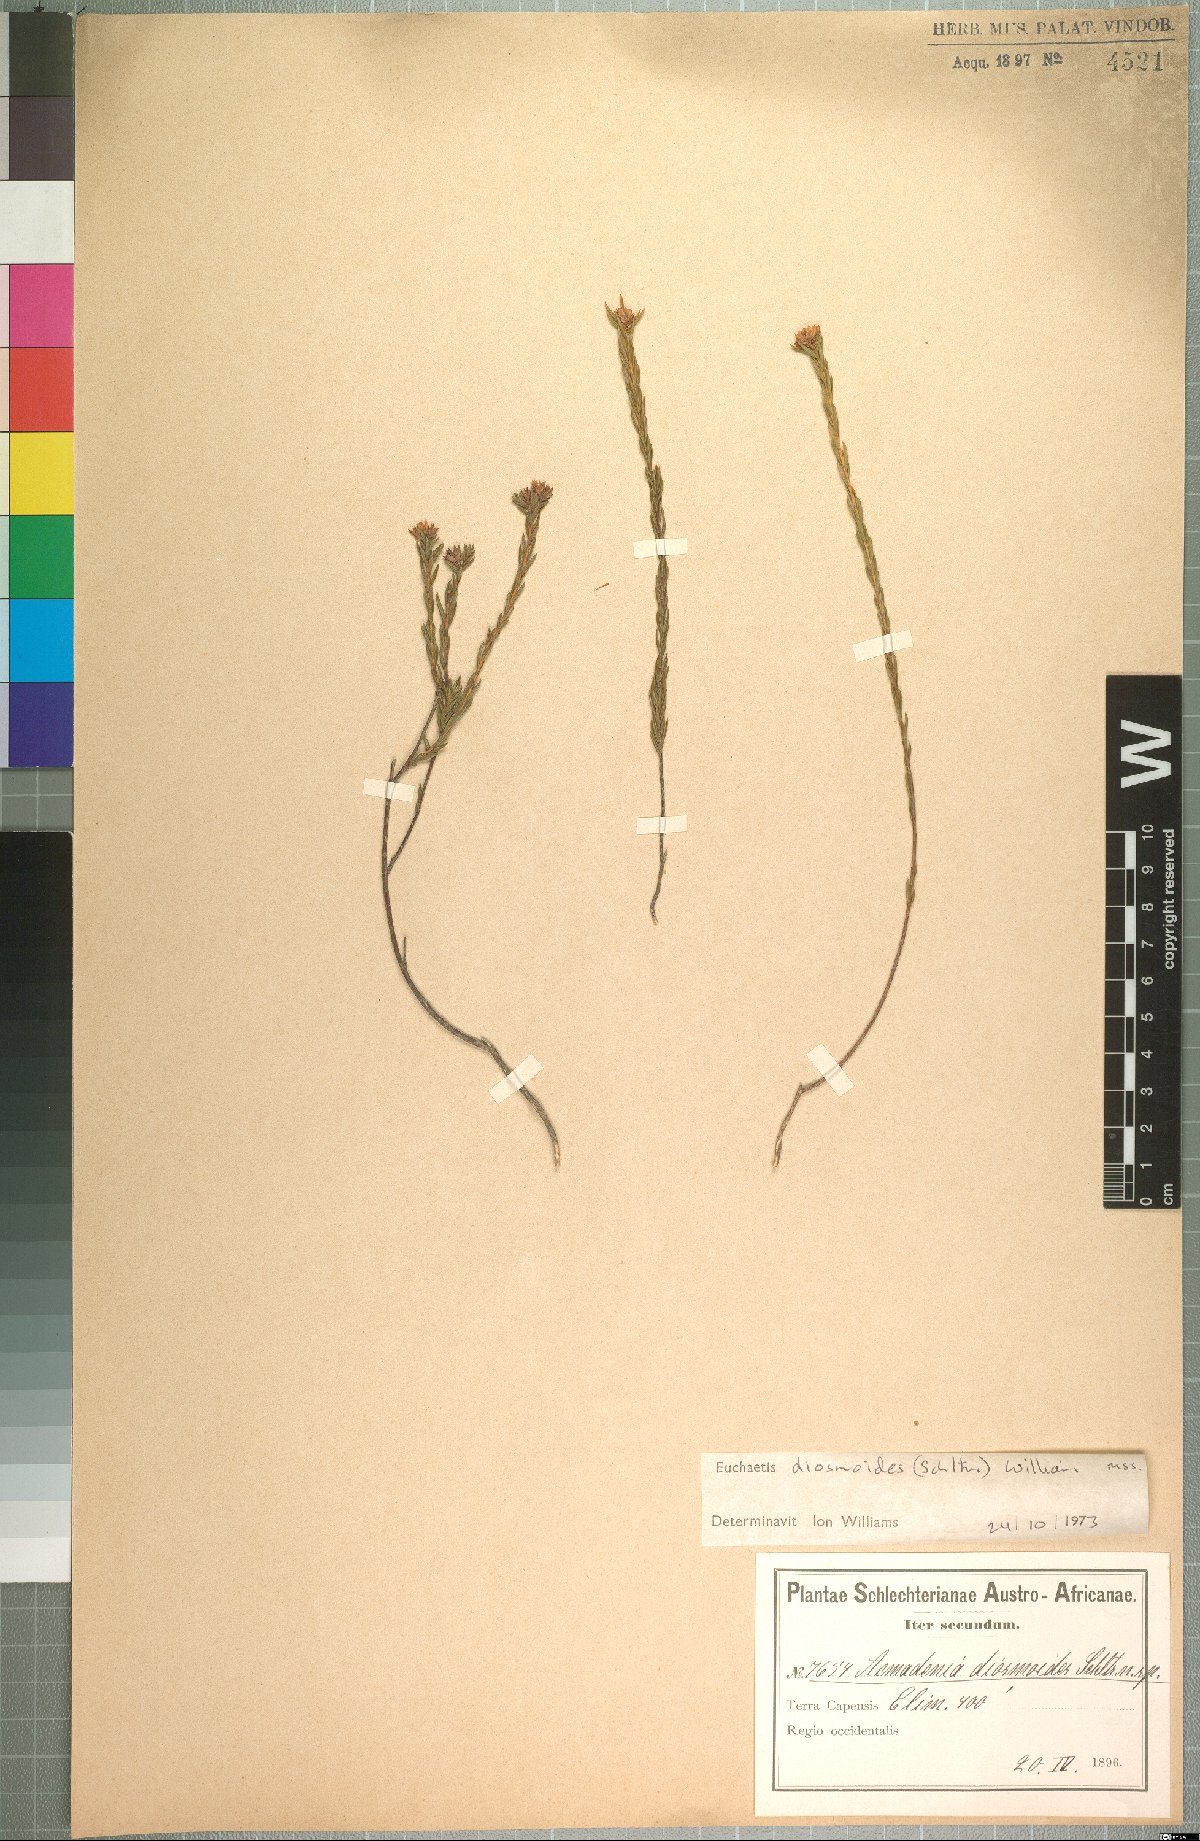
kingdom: Plantae
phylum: Tracheophyta
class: Magnoliopsida
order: Sapindales
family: Rutaceae
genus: Euchaetis
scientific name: Euchaetis diosmoides
